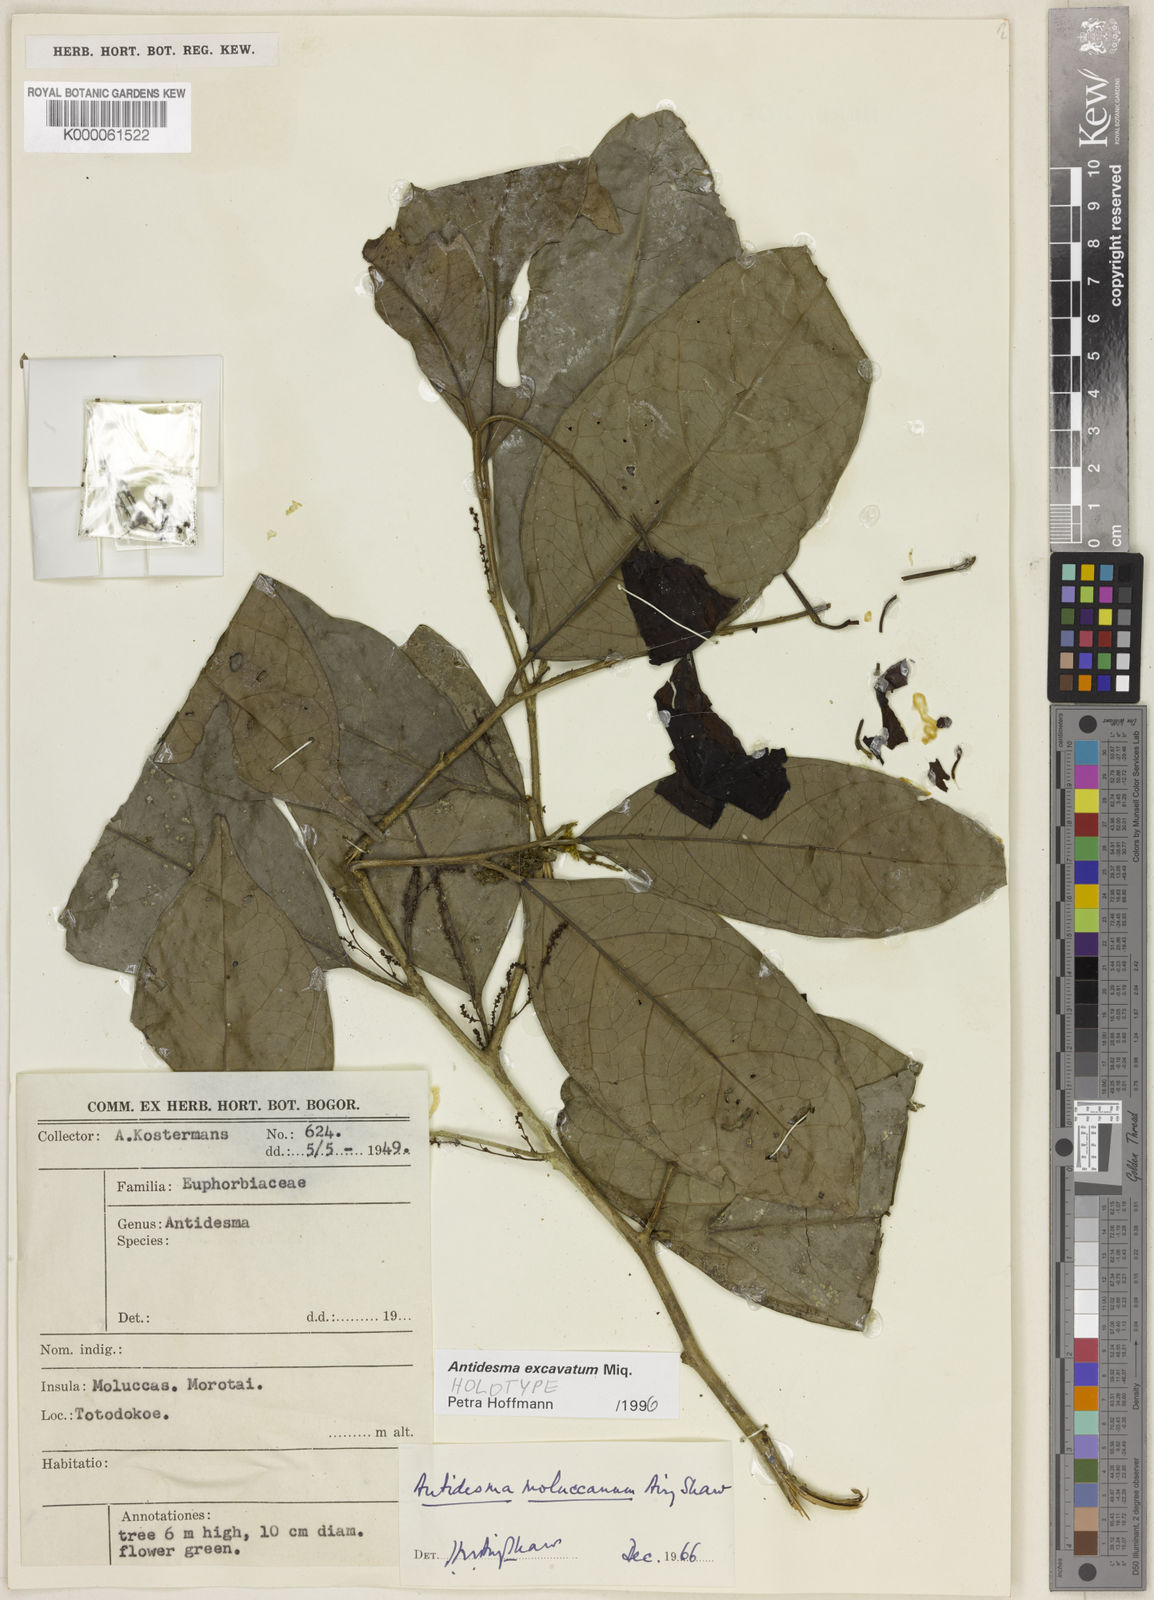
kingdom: Plantae
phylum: Tracheophyta
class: Magnoliopsida
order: Malpighiales
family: Phyllanthaceae
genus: Antidesma
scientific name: Antidesma excavatum
